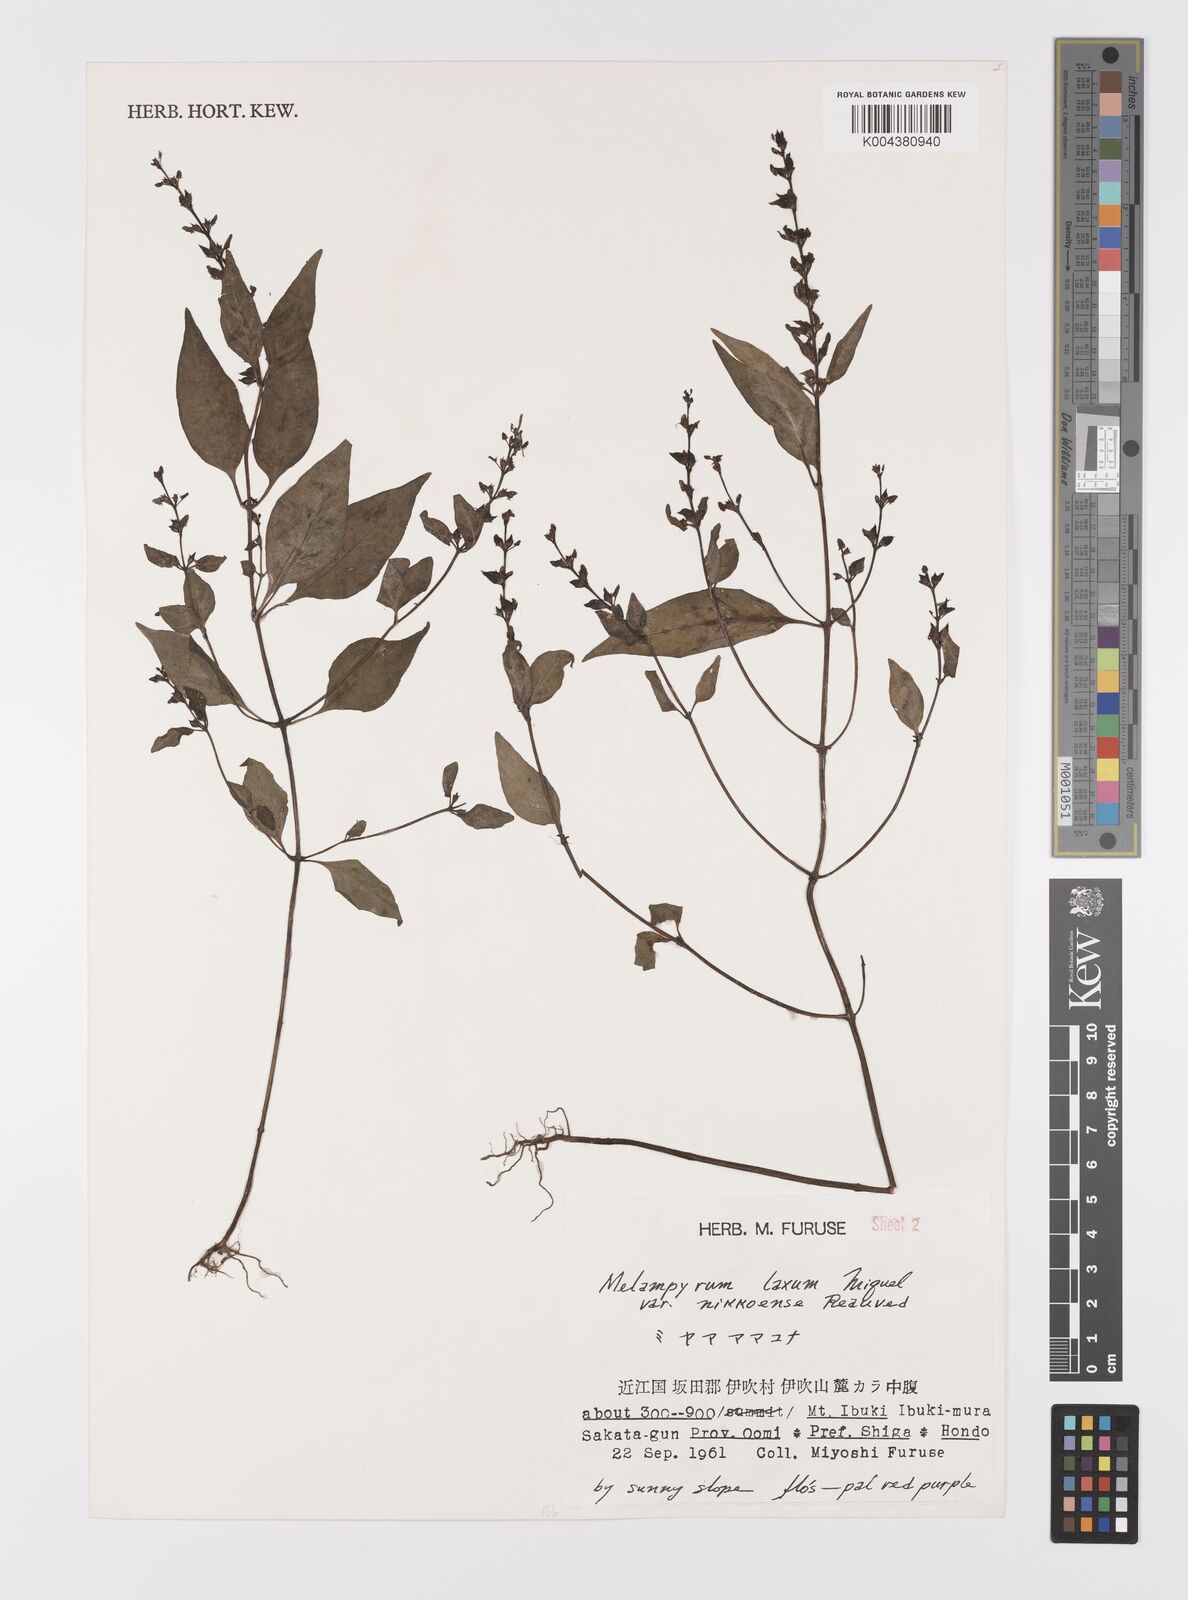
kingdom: Plantae
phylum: Tracheophyta
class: Magnoliopsida
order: Lamiales
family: Orobanchaceae
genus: Melampyrum
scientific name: Melampyrum laxum
